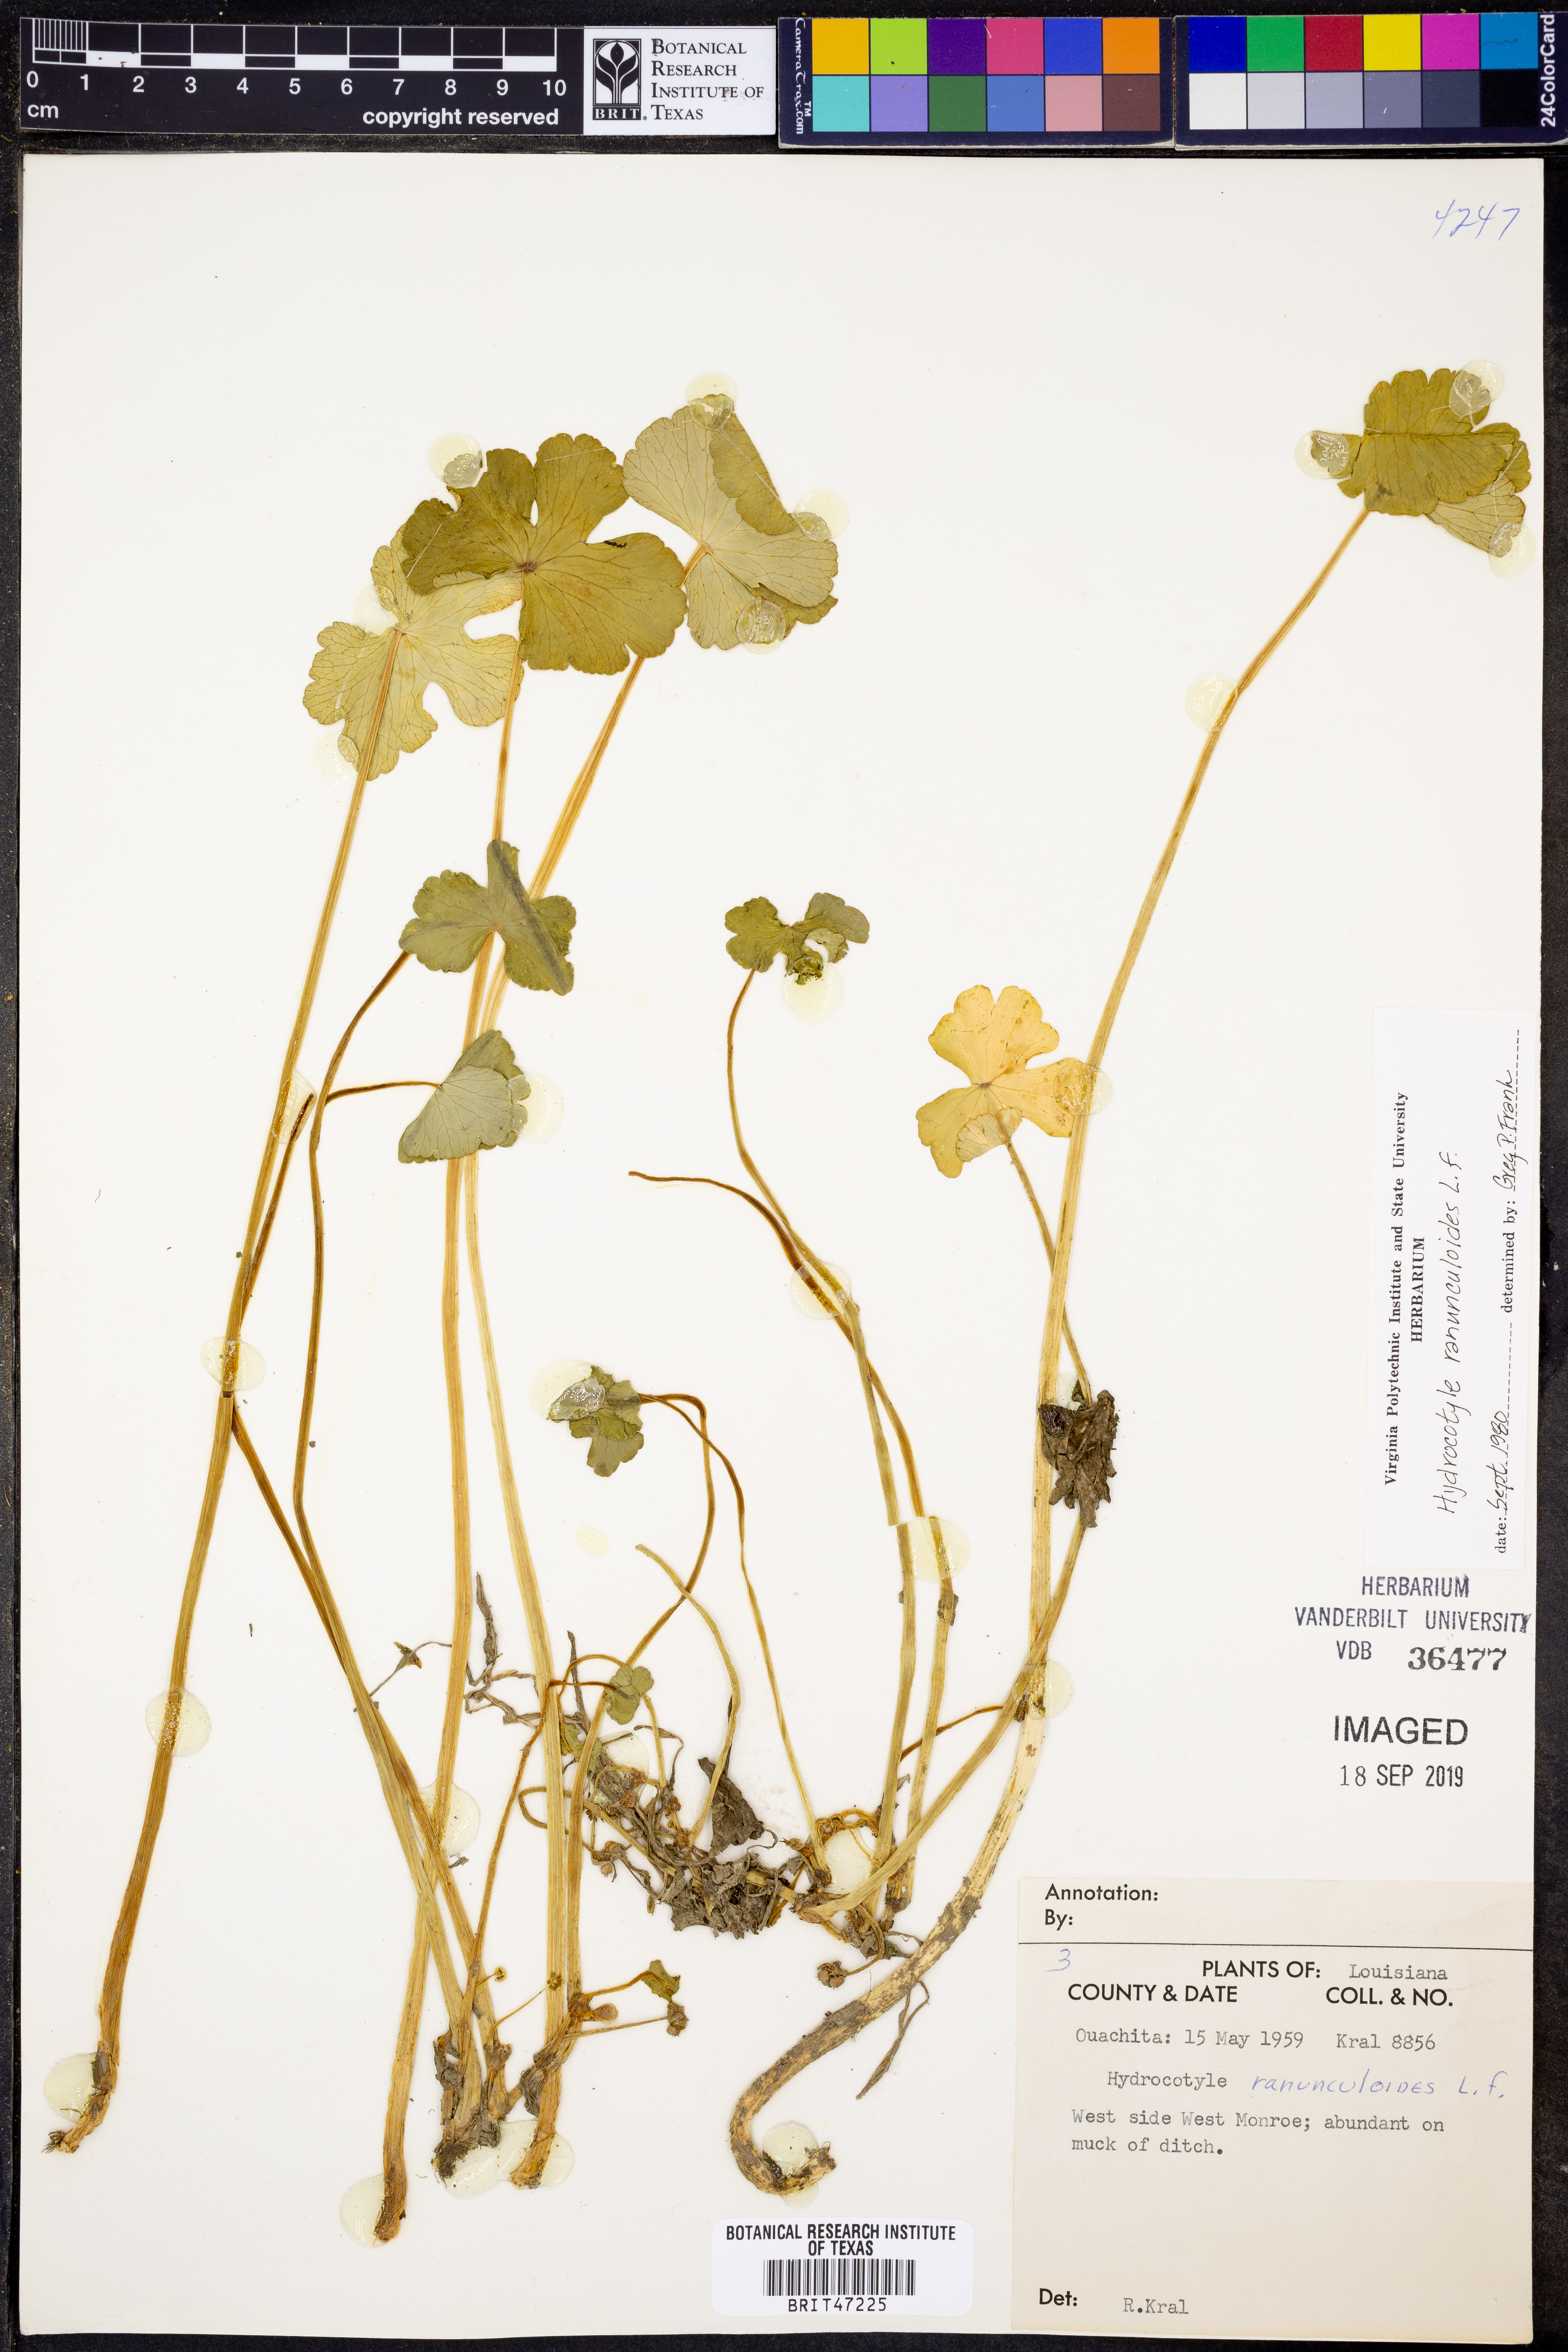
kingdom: Plantae
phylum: Tracheophyta
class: Magnoliopsida
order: Apiales
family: Araliaceae
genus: Hydrocotyle
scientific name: Hydrocotyle ranunculoides
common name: Floating pennywort
